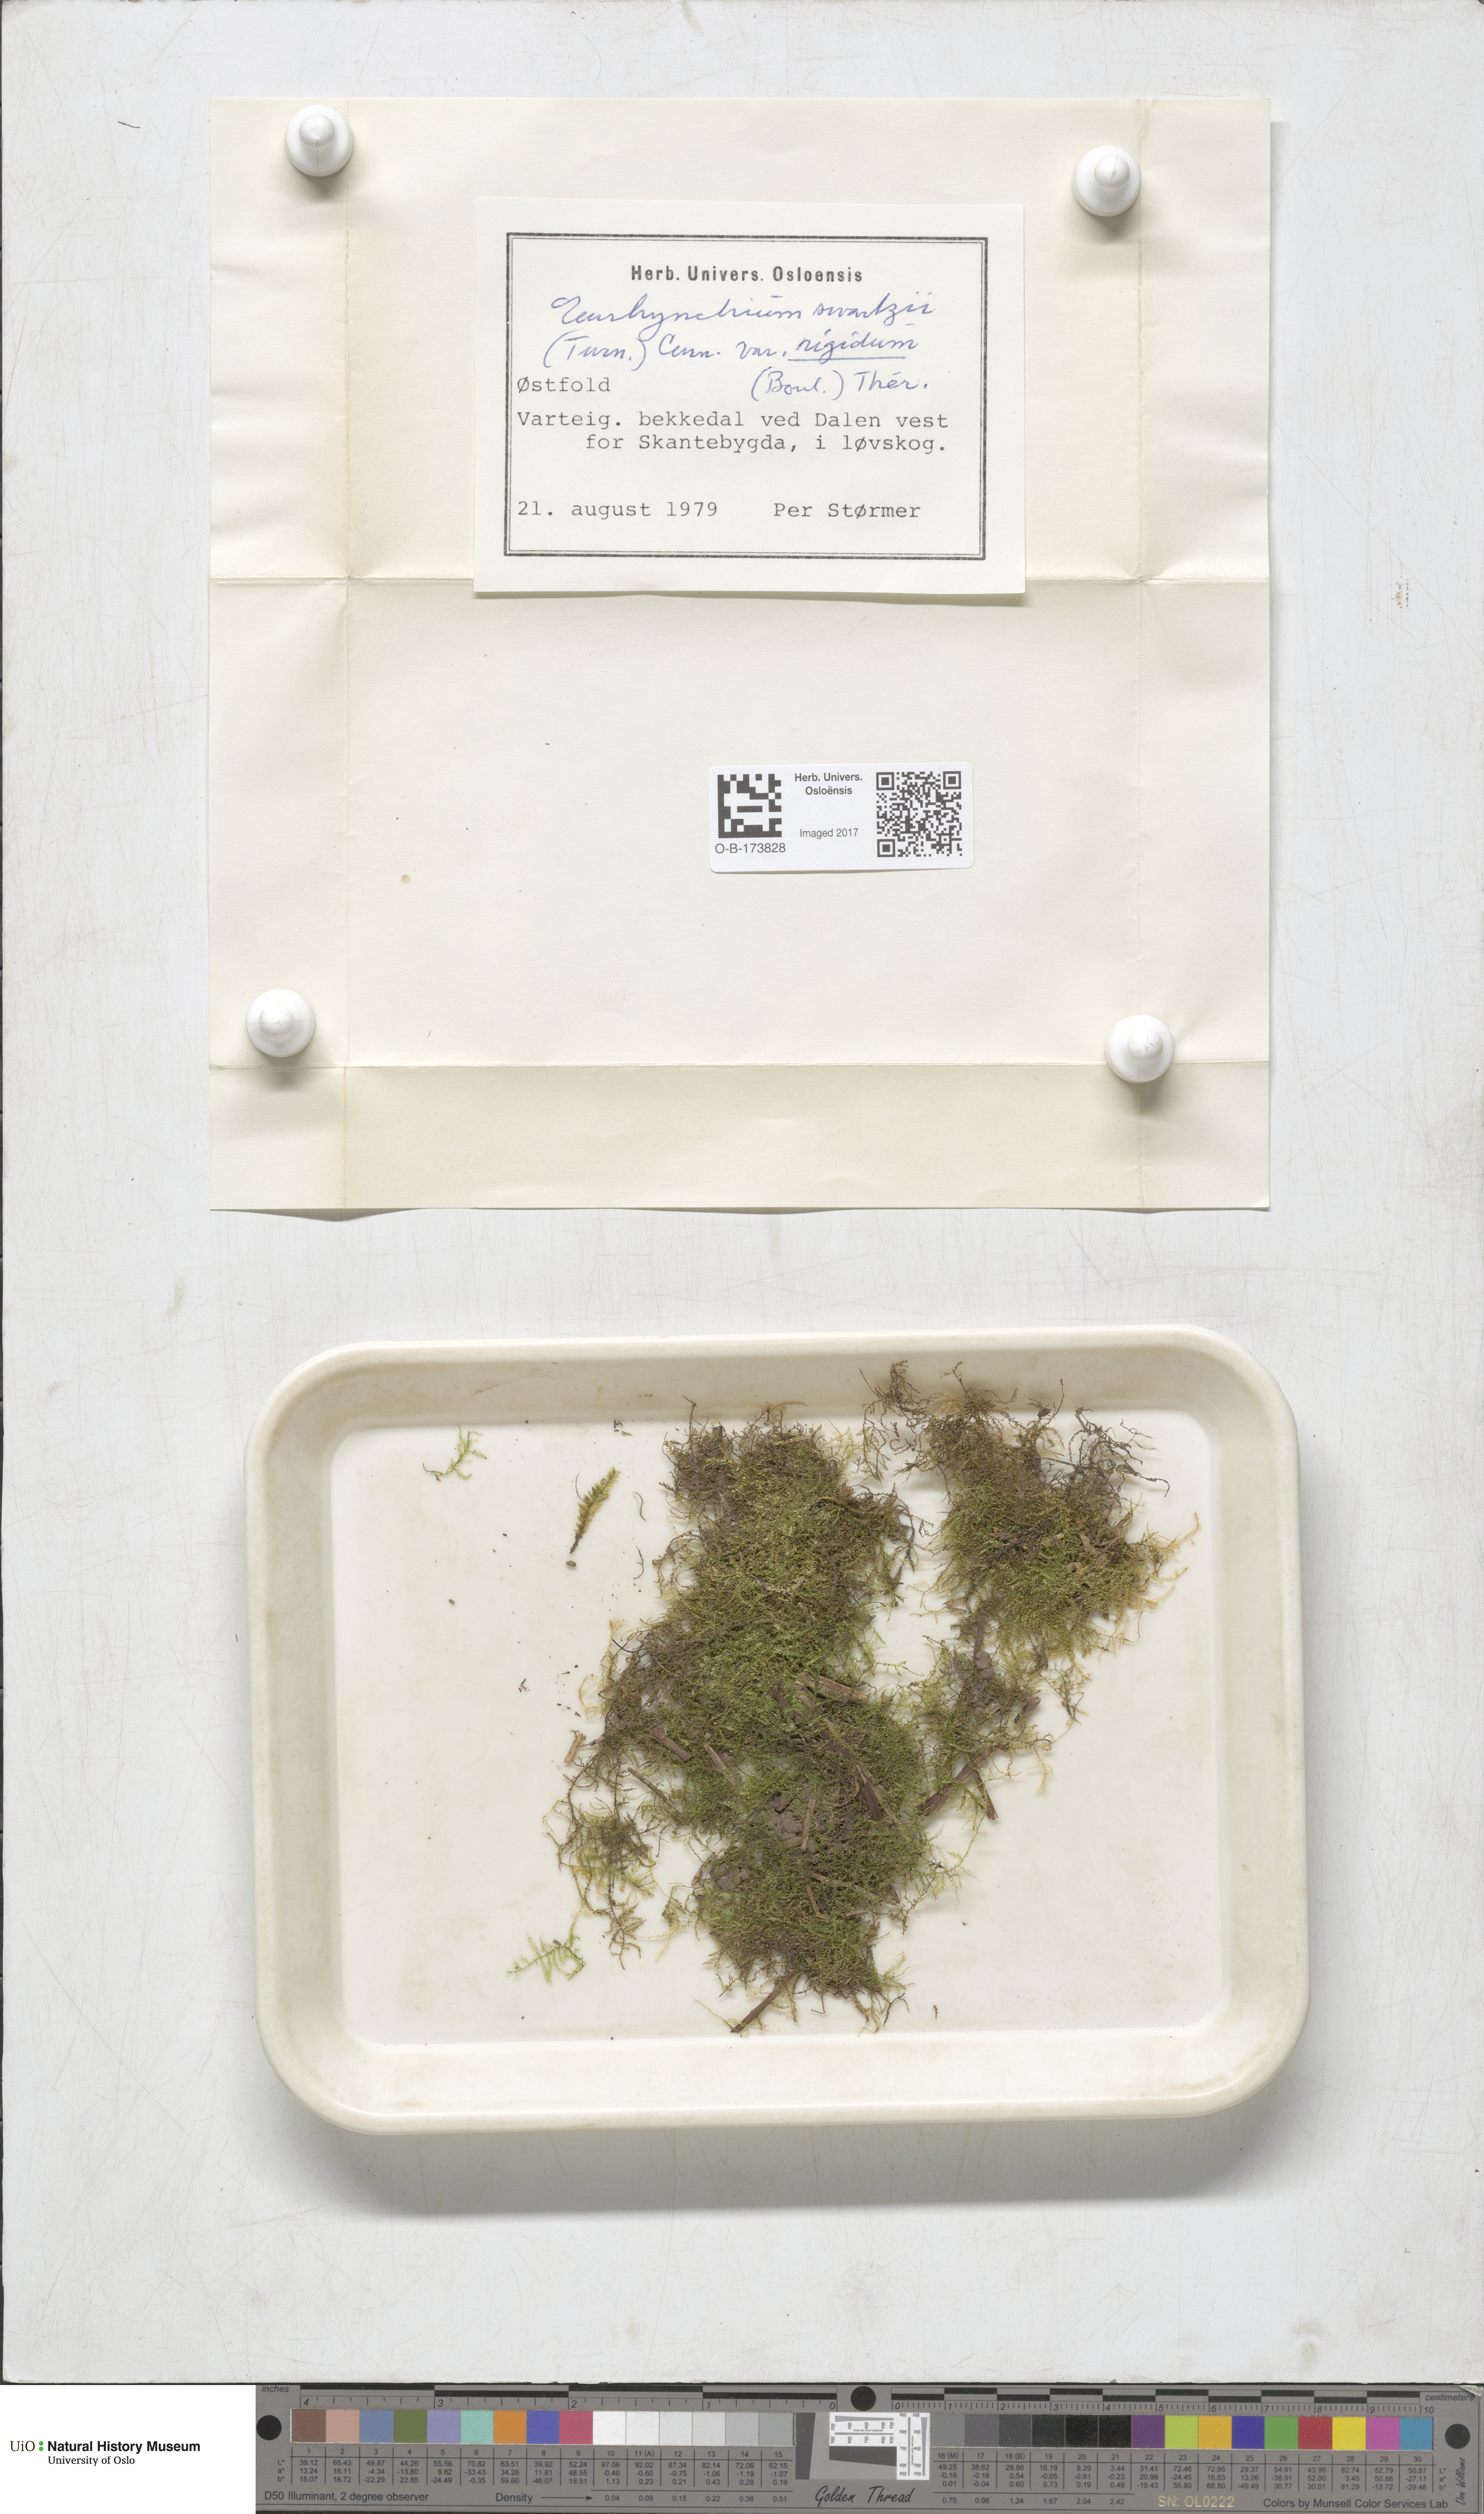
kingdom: Plantae
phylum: Bryophyta
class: Bryopsida
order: Hypnales
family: Brachytheciaceae
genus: Kindbergia
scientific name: Kindbergia praelonga
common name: Slender beaked moss
